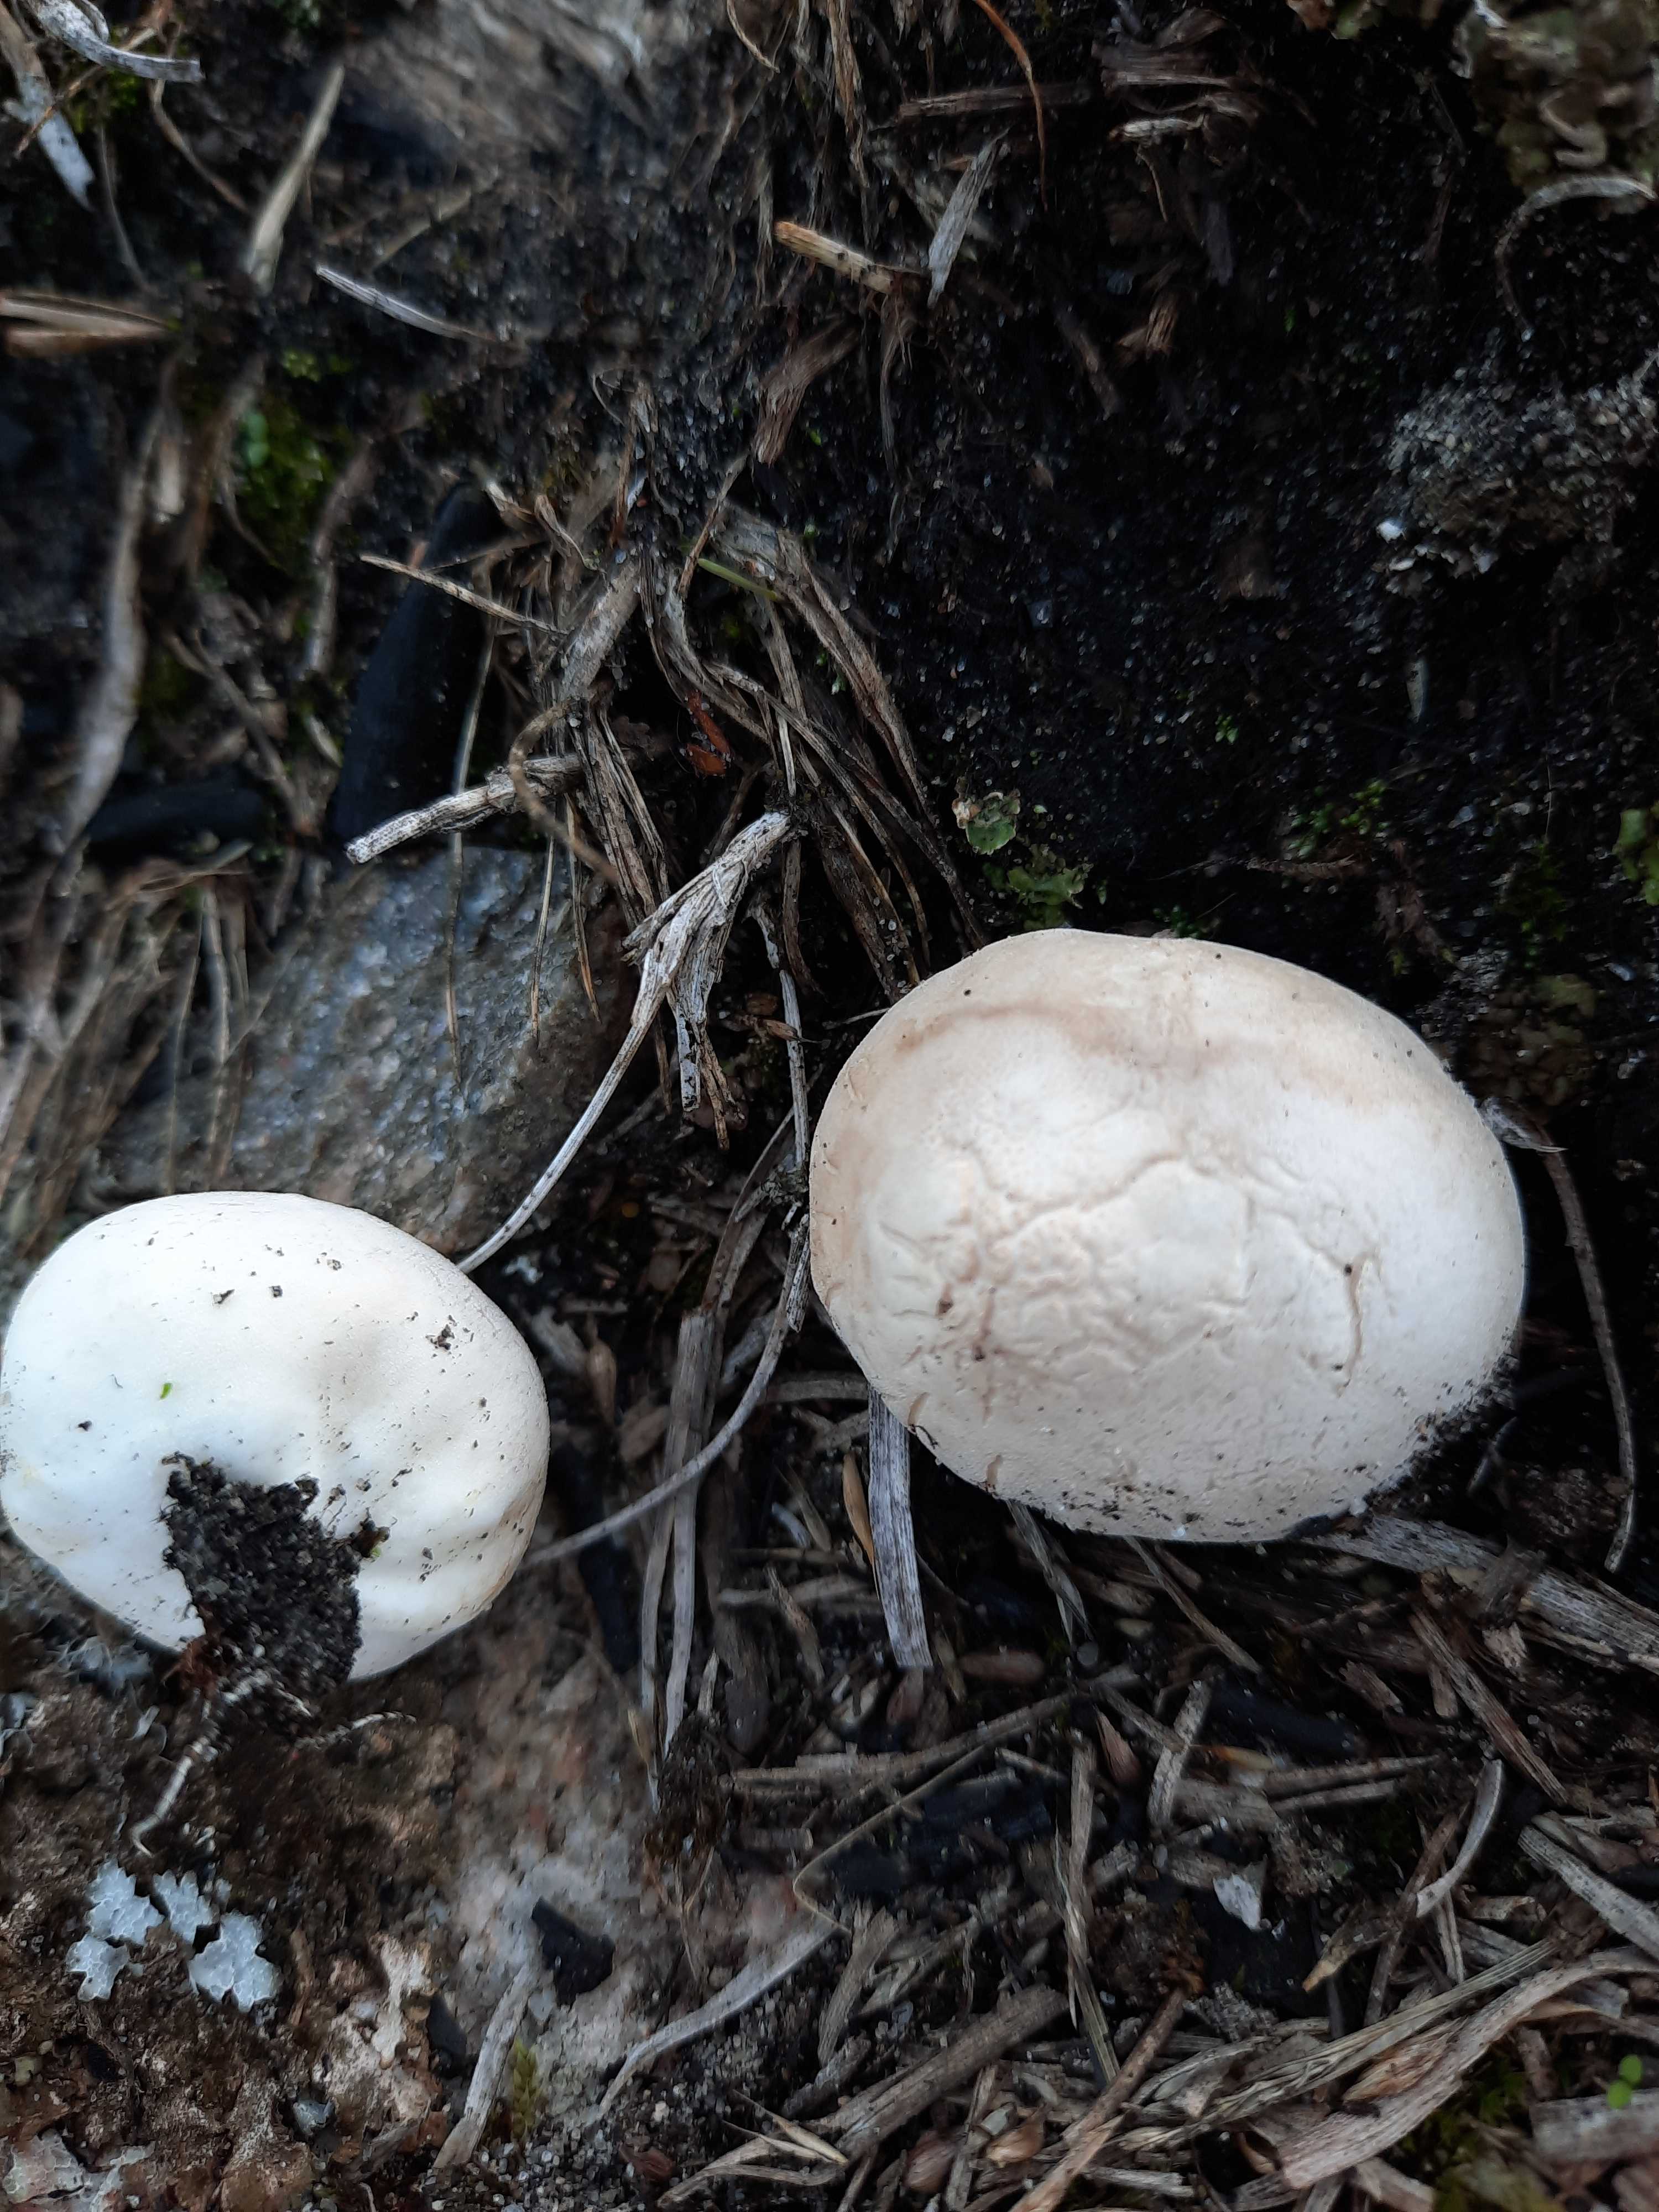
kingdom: Fungi
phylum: Basidiomycota
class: Agaricomycetes
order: Agaricales
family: Lycoperdaceae
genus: Bovista
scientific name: Bovista plumbea
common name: blygrå bovist
